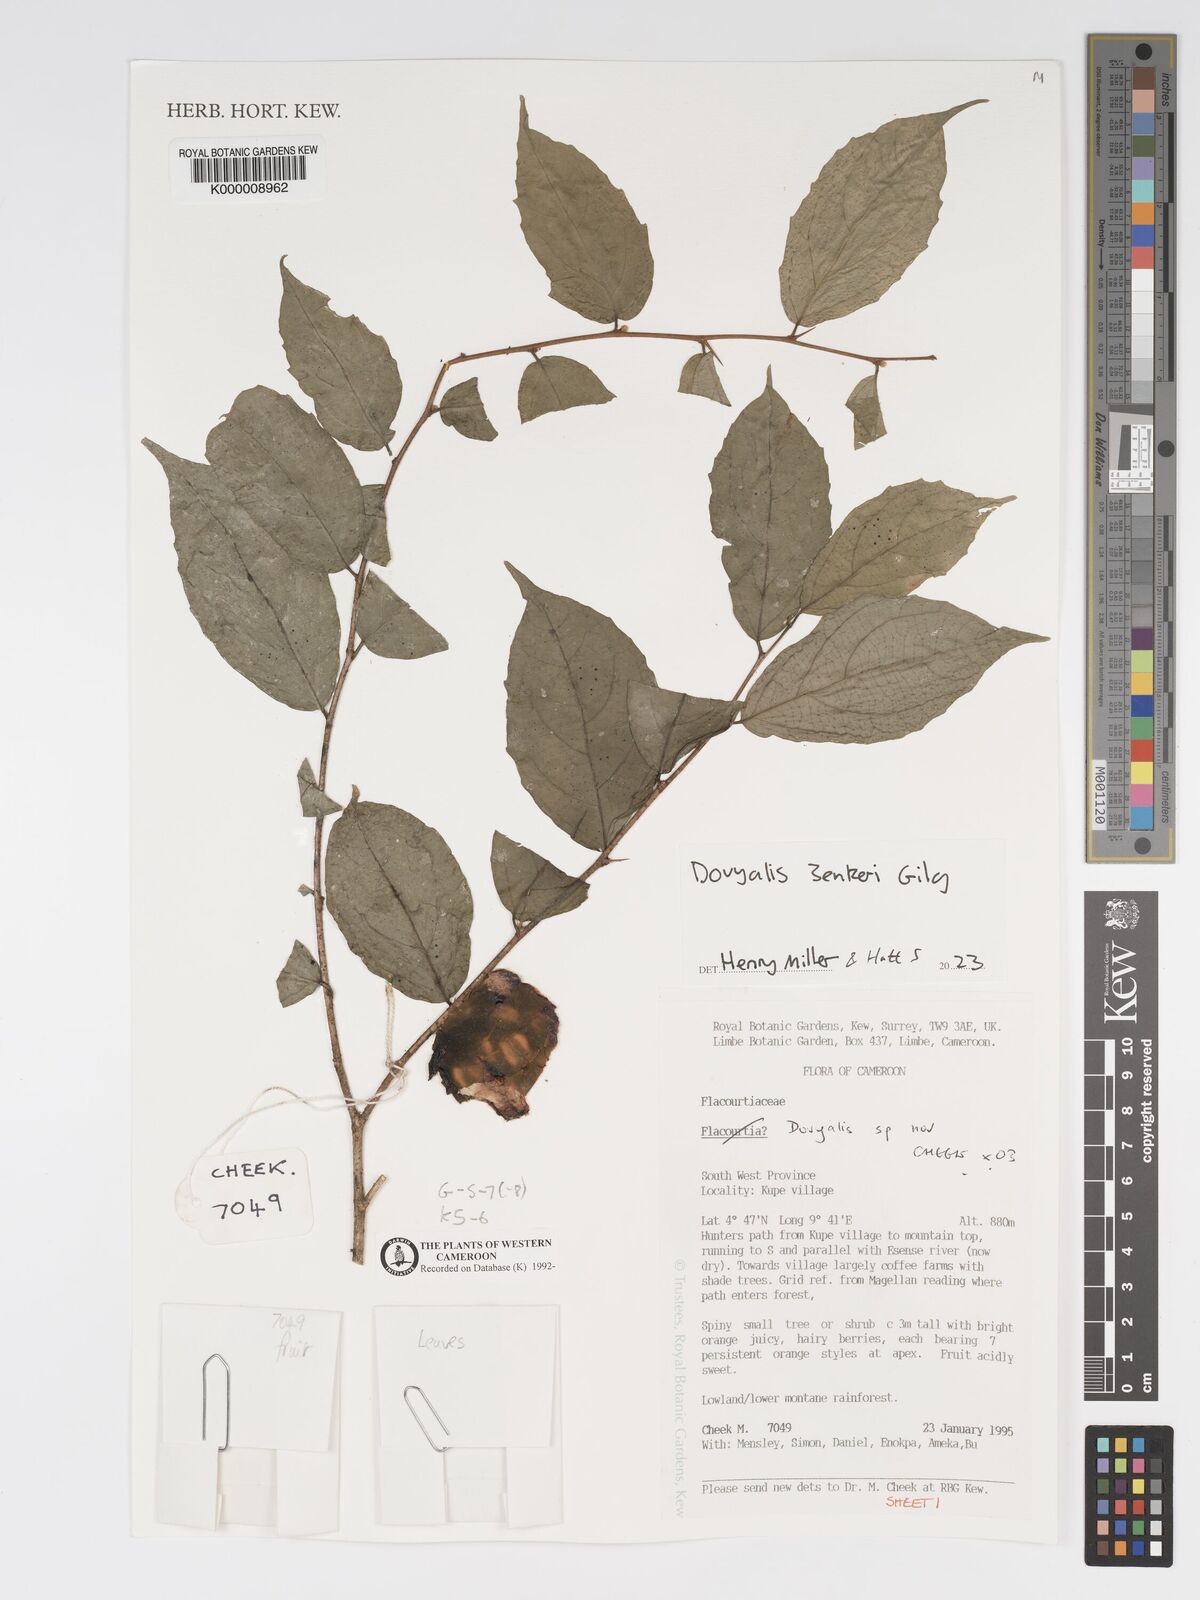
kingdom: Plantae
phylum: Tracheophyta
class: Magnoliopsida
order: Malpighiales
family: Salicaceae
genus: Dovyalis
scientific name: Dovyalis
